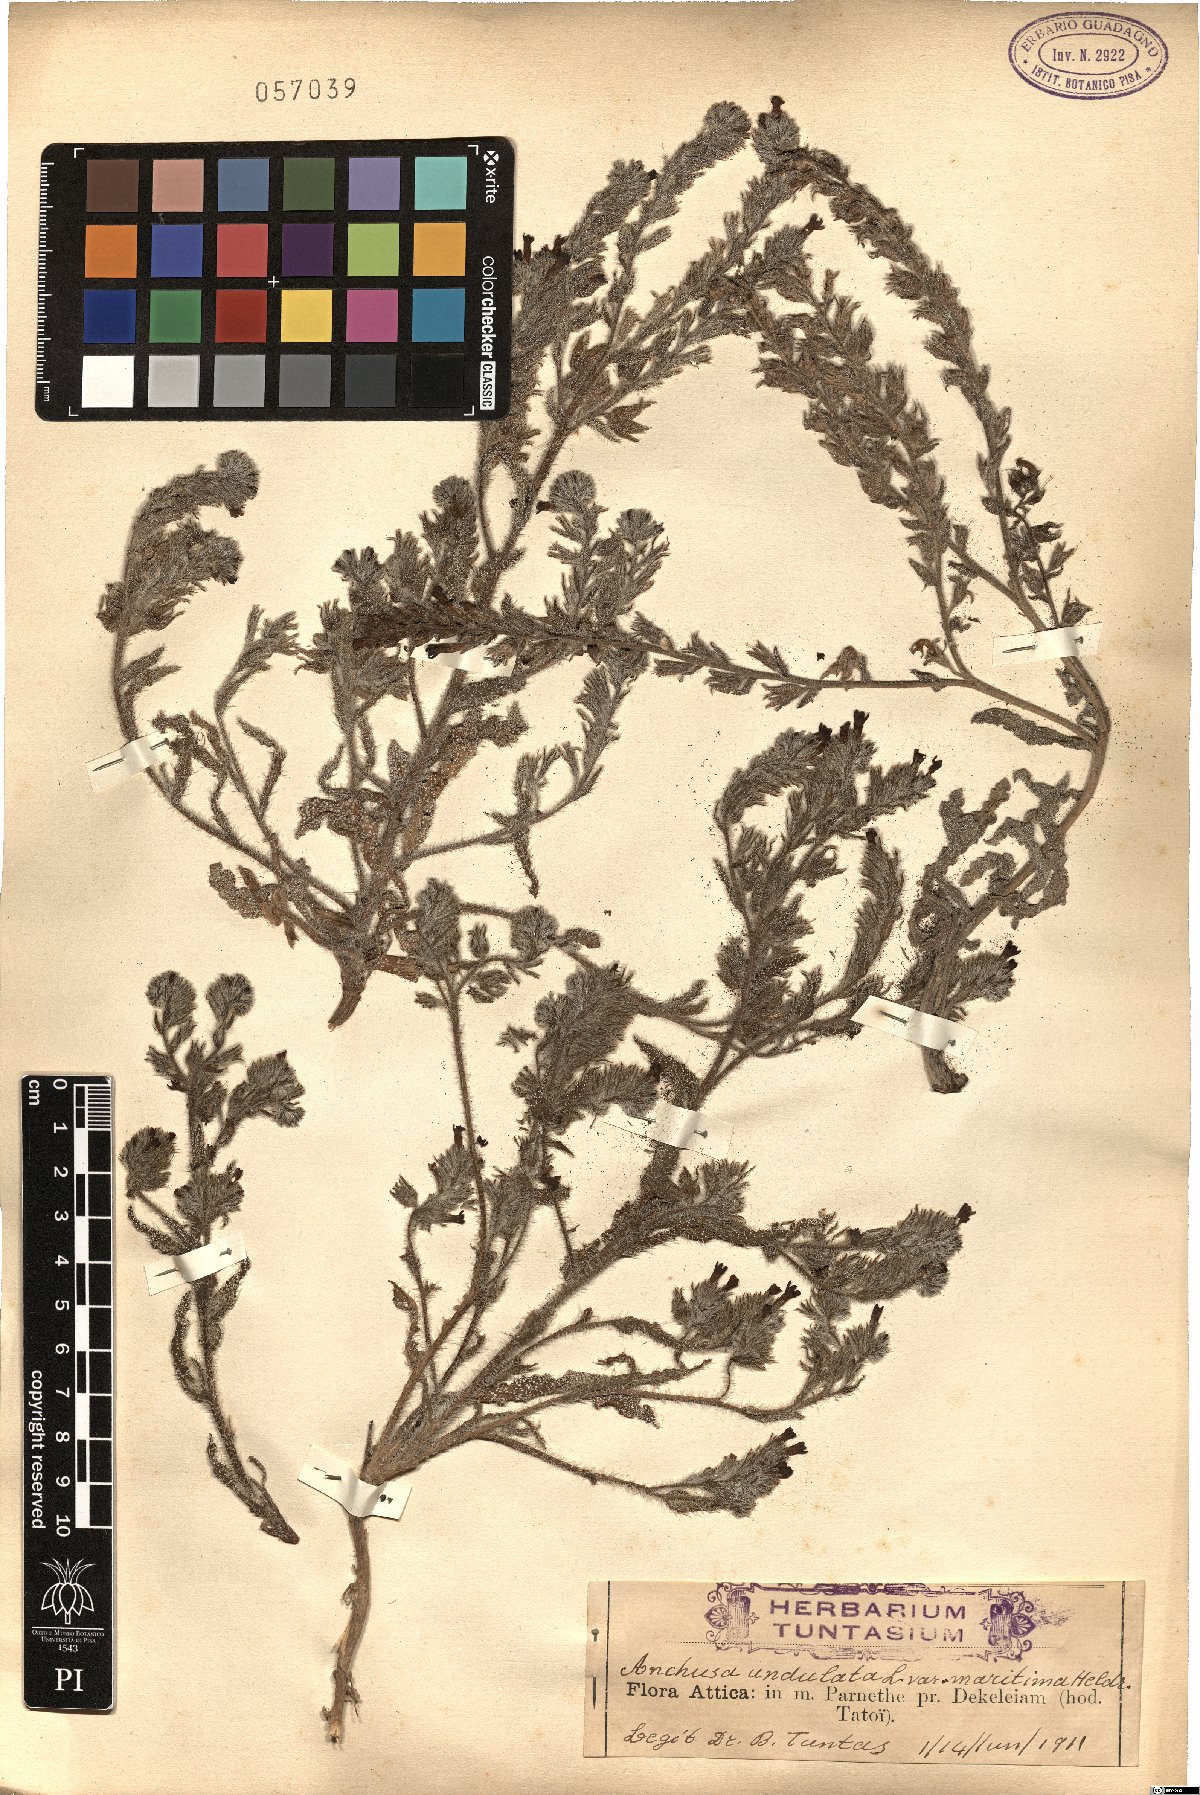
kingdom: Plantae
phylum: Tracheophyta
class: Magnoliopsida
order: Boraginales
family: Boraginaceae
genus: Anchusa
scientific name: Anchusa undulata
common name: Undulate alkanet
